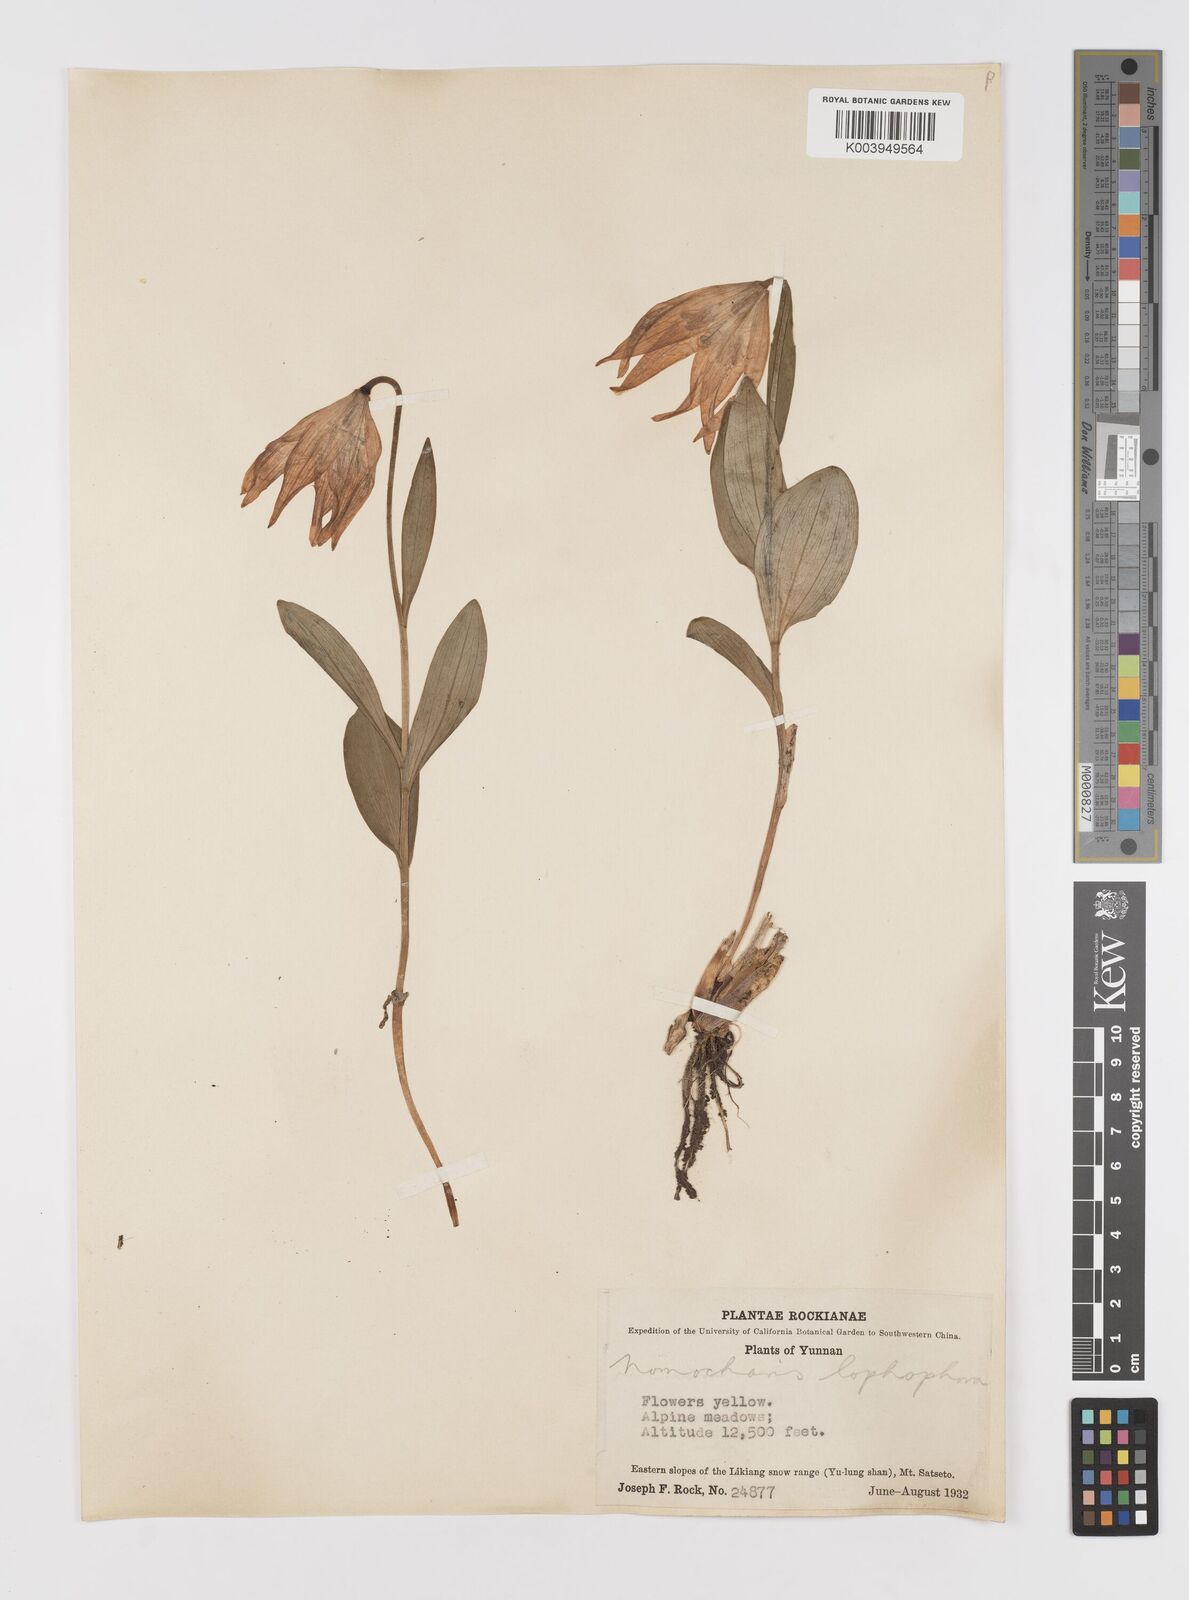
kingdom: Plantae
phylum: Tracheophyta
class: Liliopsida
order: Liliales
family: Liliaceae
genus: Lilium
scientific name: Lilium lophophorum
